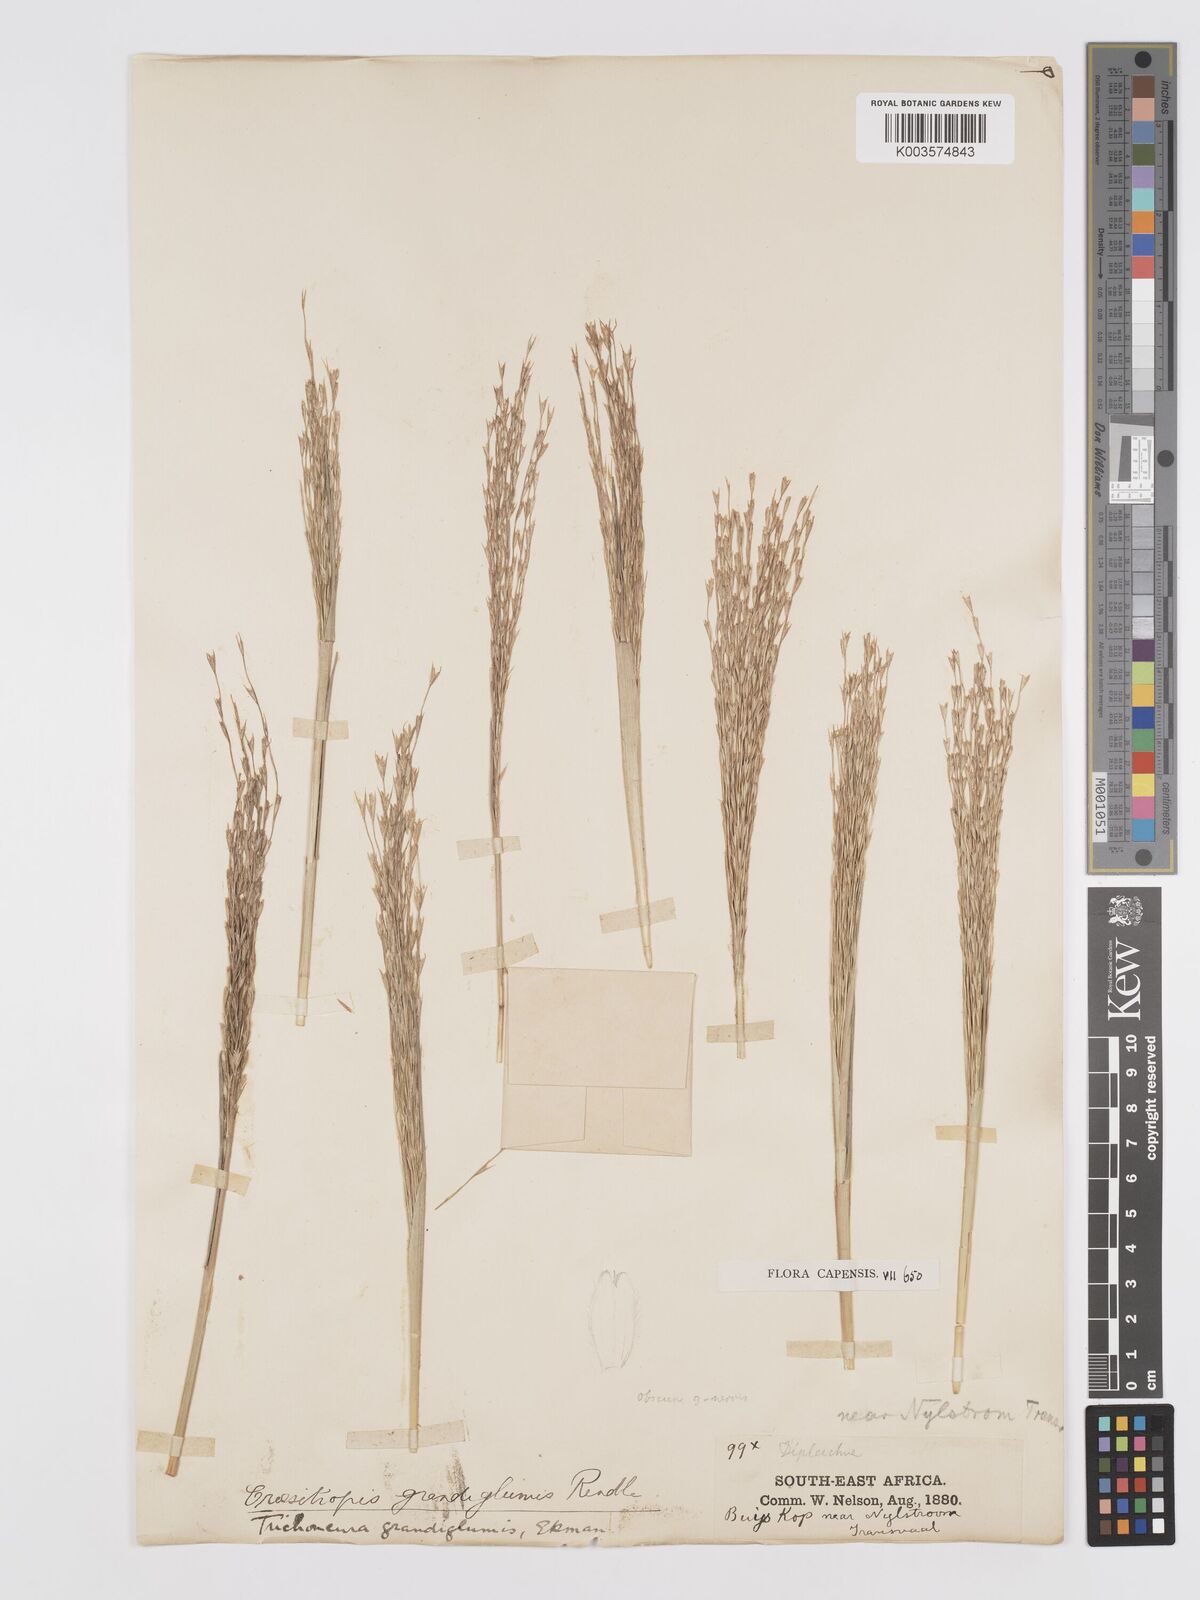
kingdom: Plantae
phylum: Tracheophyta
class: Liliopsida
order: Poales
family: Poaceae
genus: Trichoneura
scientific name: Trichoneura grandiglumis
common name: Rolling grass
